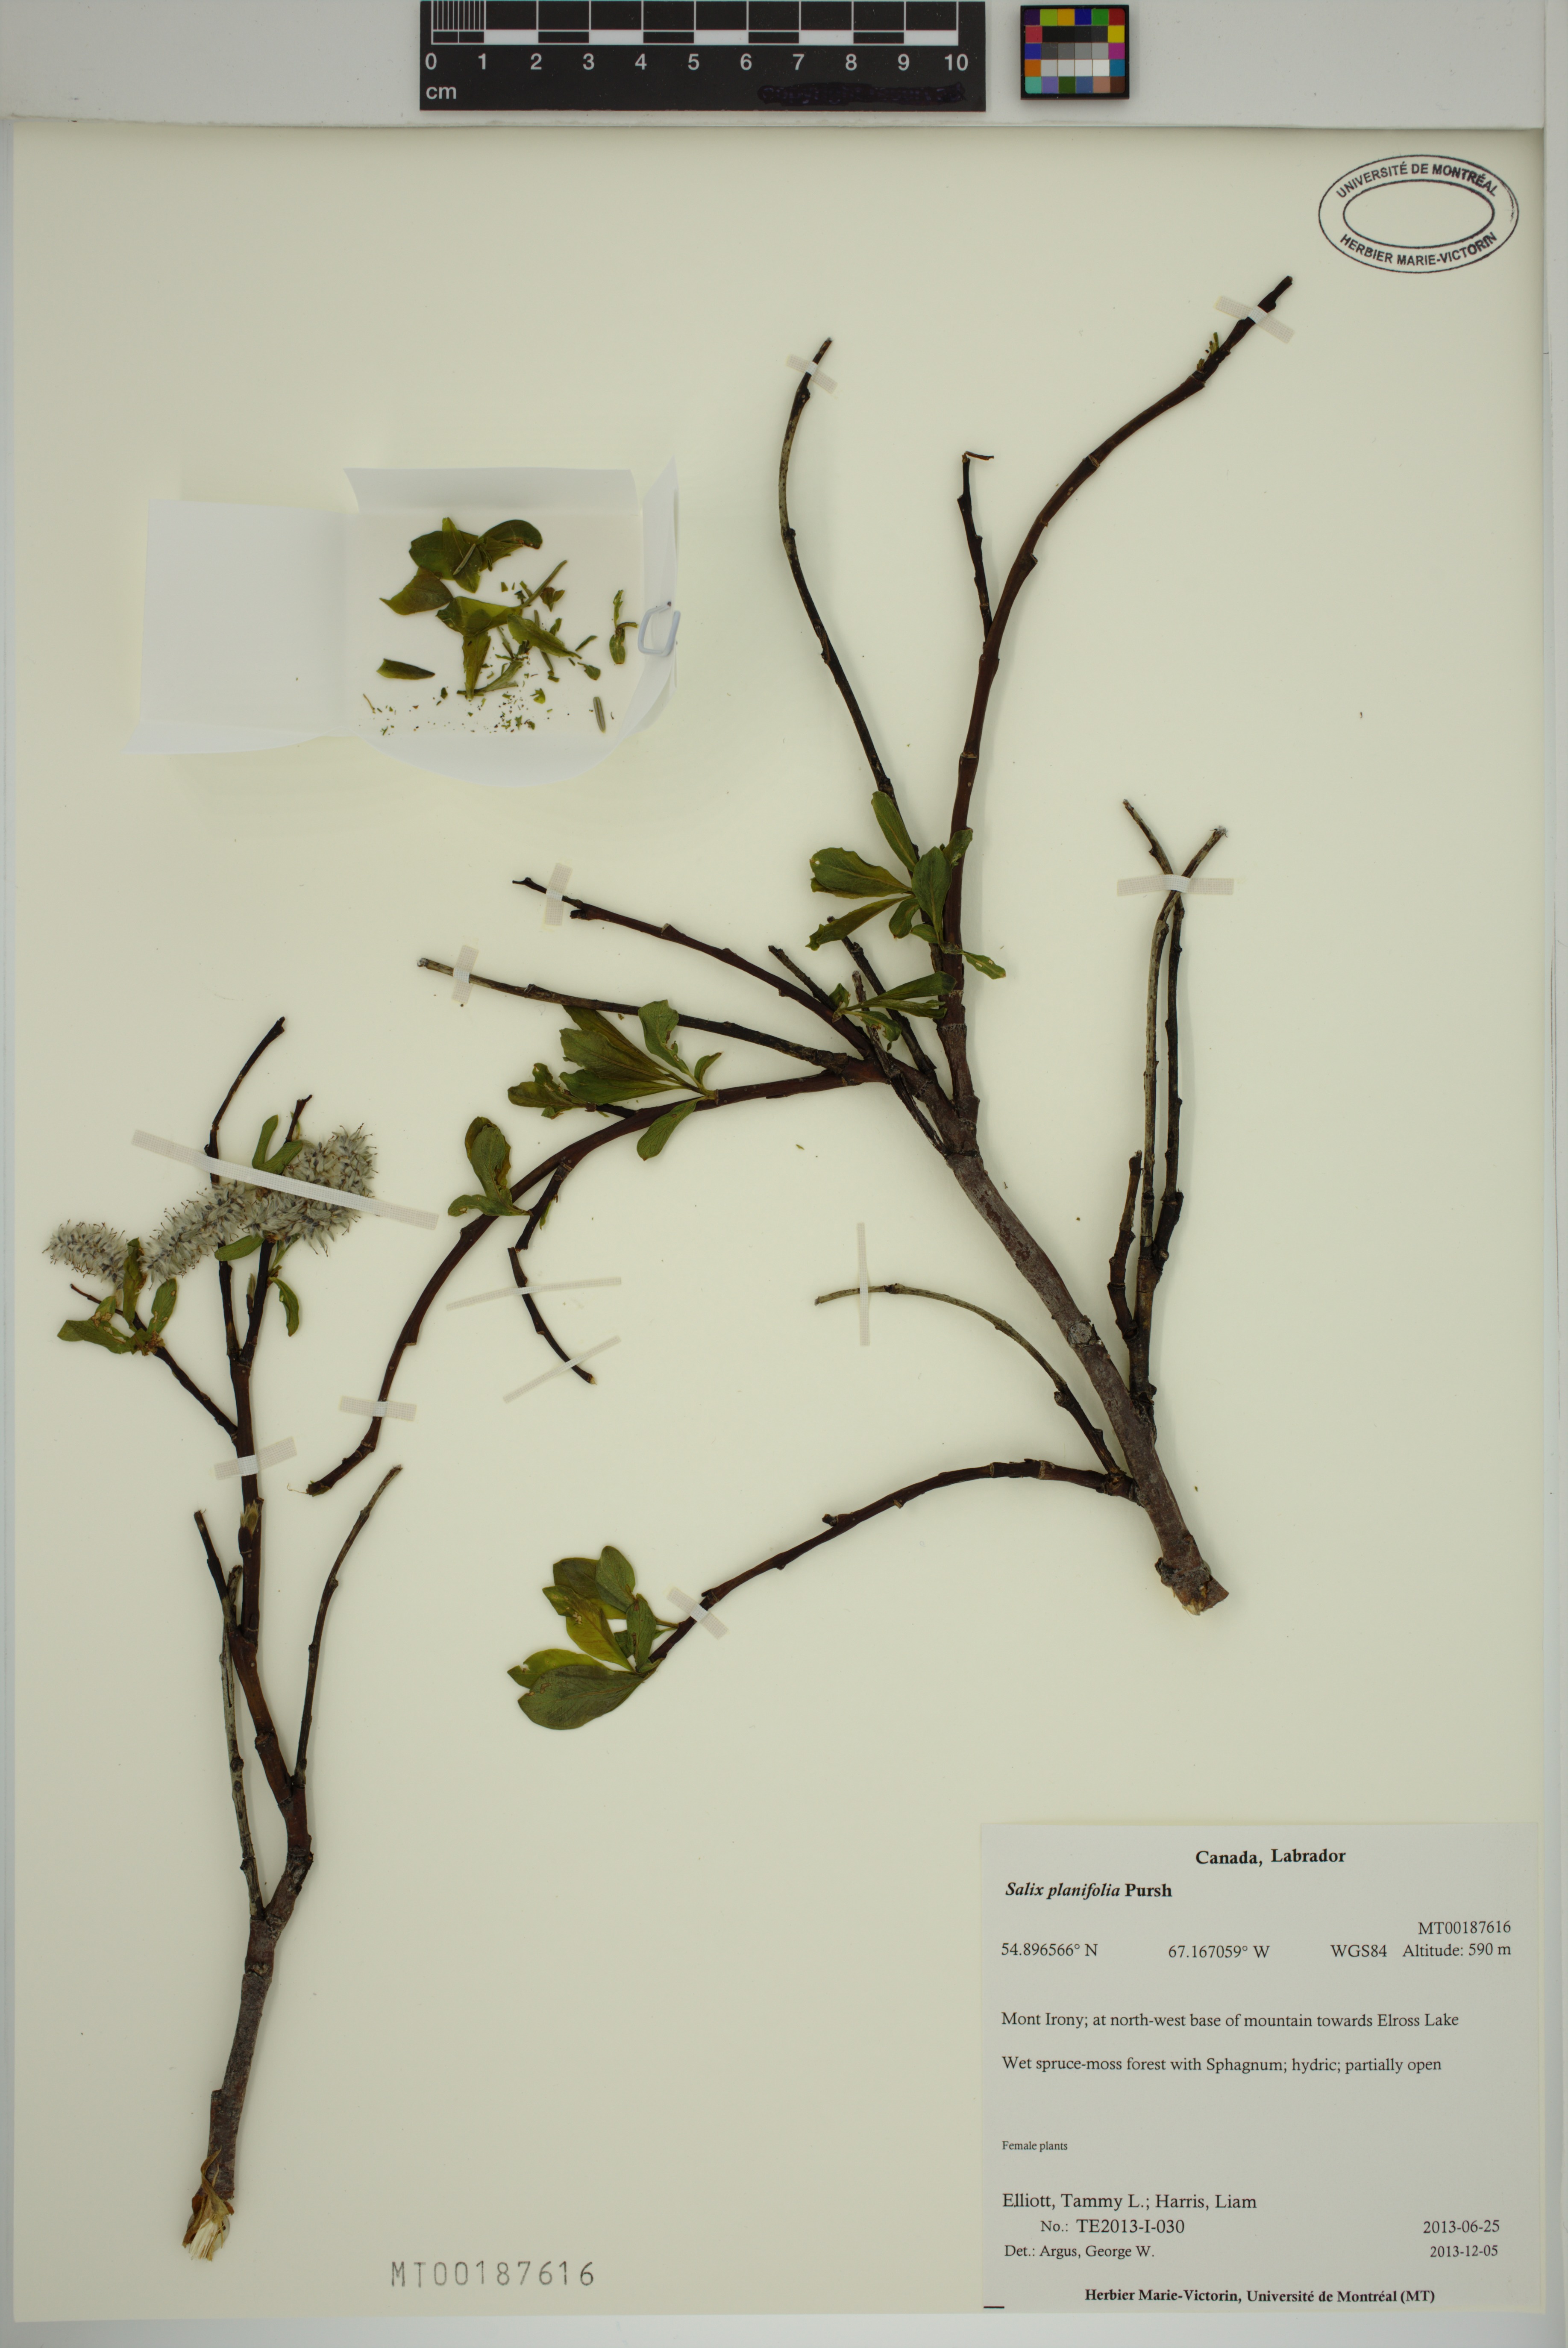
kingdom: Plantae
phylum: Tracheophyta
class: Magnoliopsida
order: Malpighiales
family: Salicaceae
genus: Salix
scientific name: Salix planifolia
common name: Mountain willow
